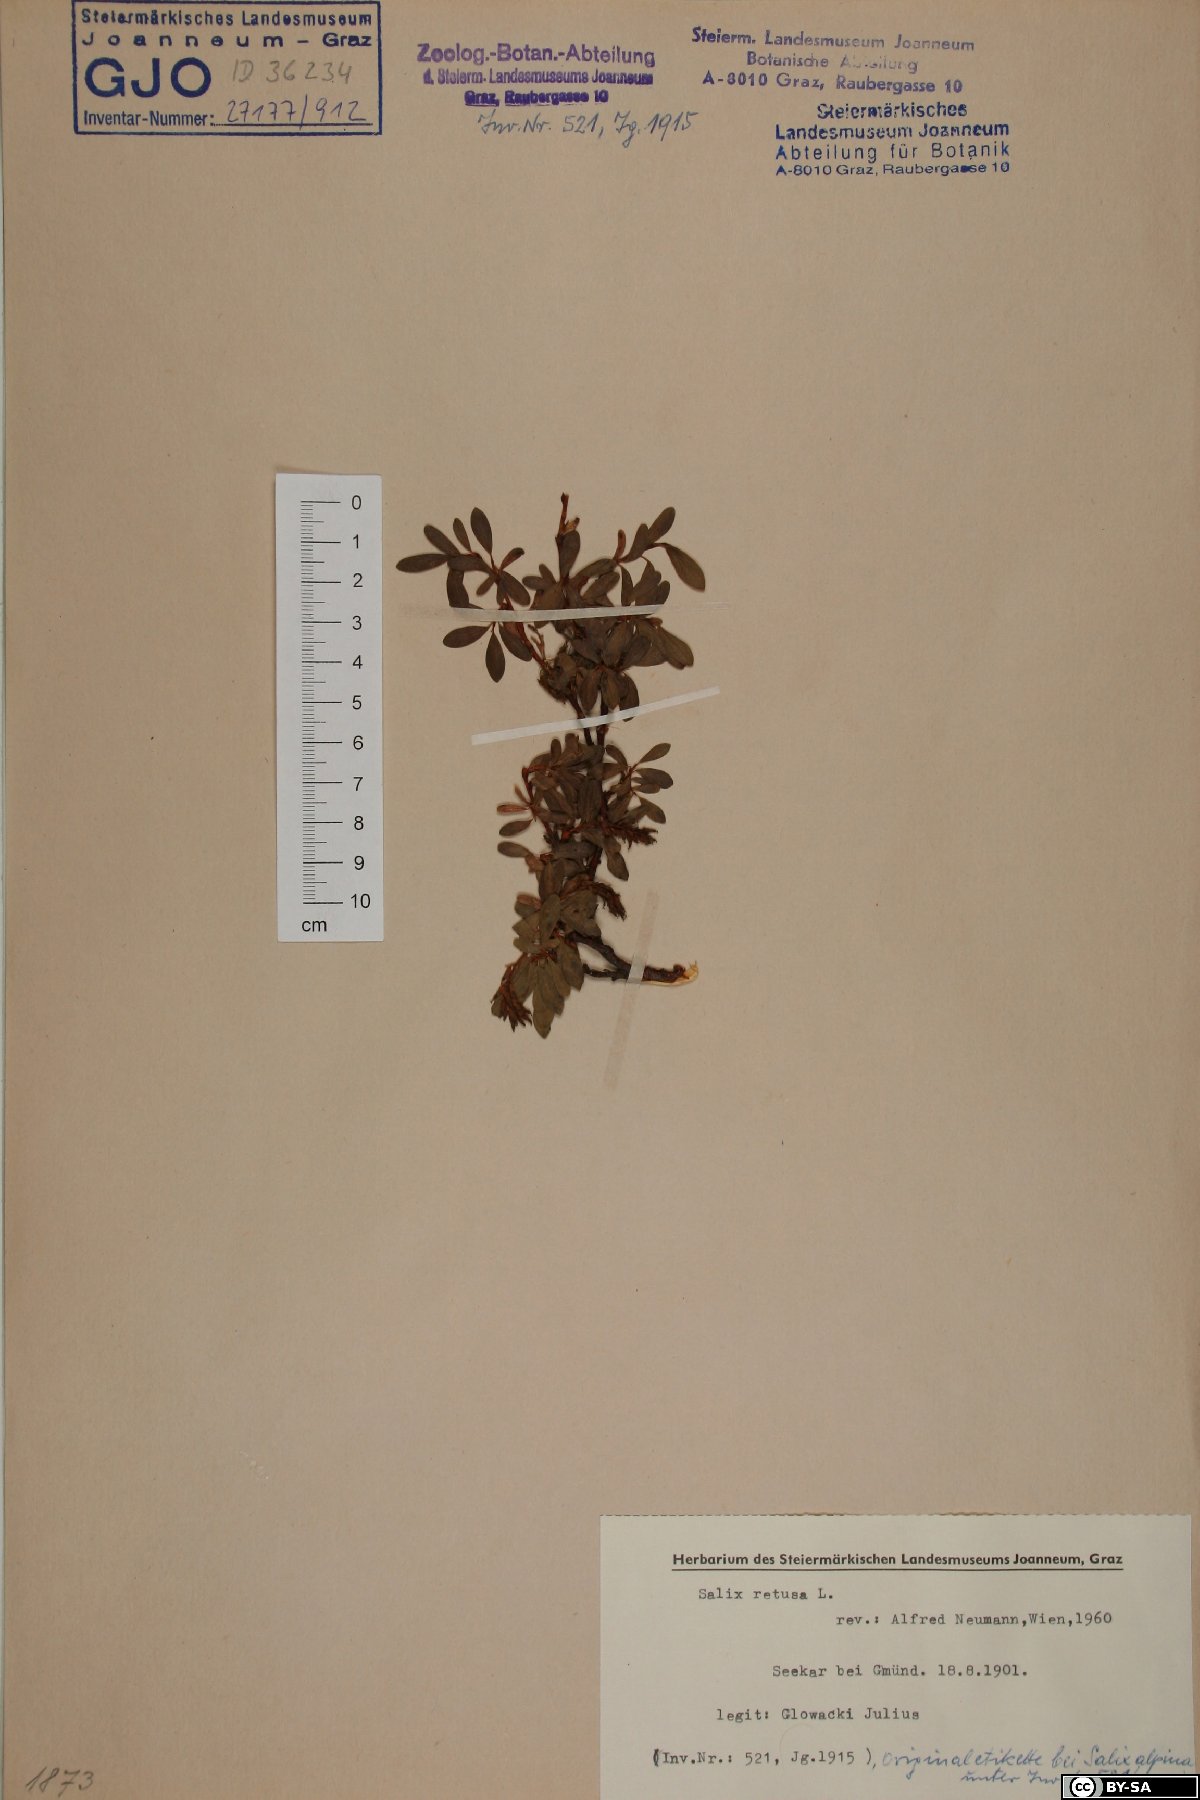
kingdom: Plantae
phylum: Tracheophyta
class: Magnoliopsida
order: Malpighiales
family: Salicaceae
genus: Salix
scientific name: Salix retusa
